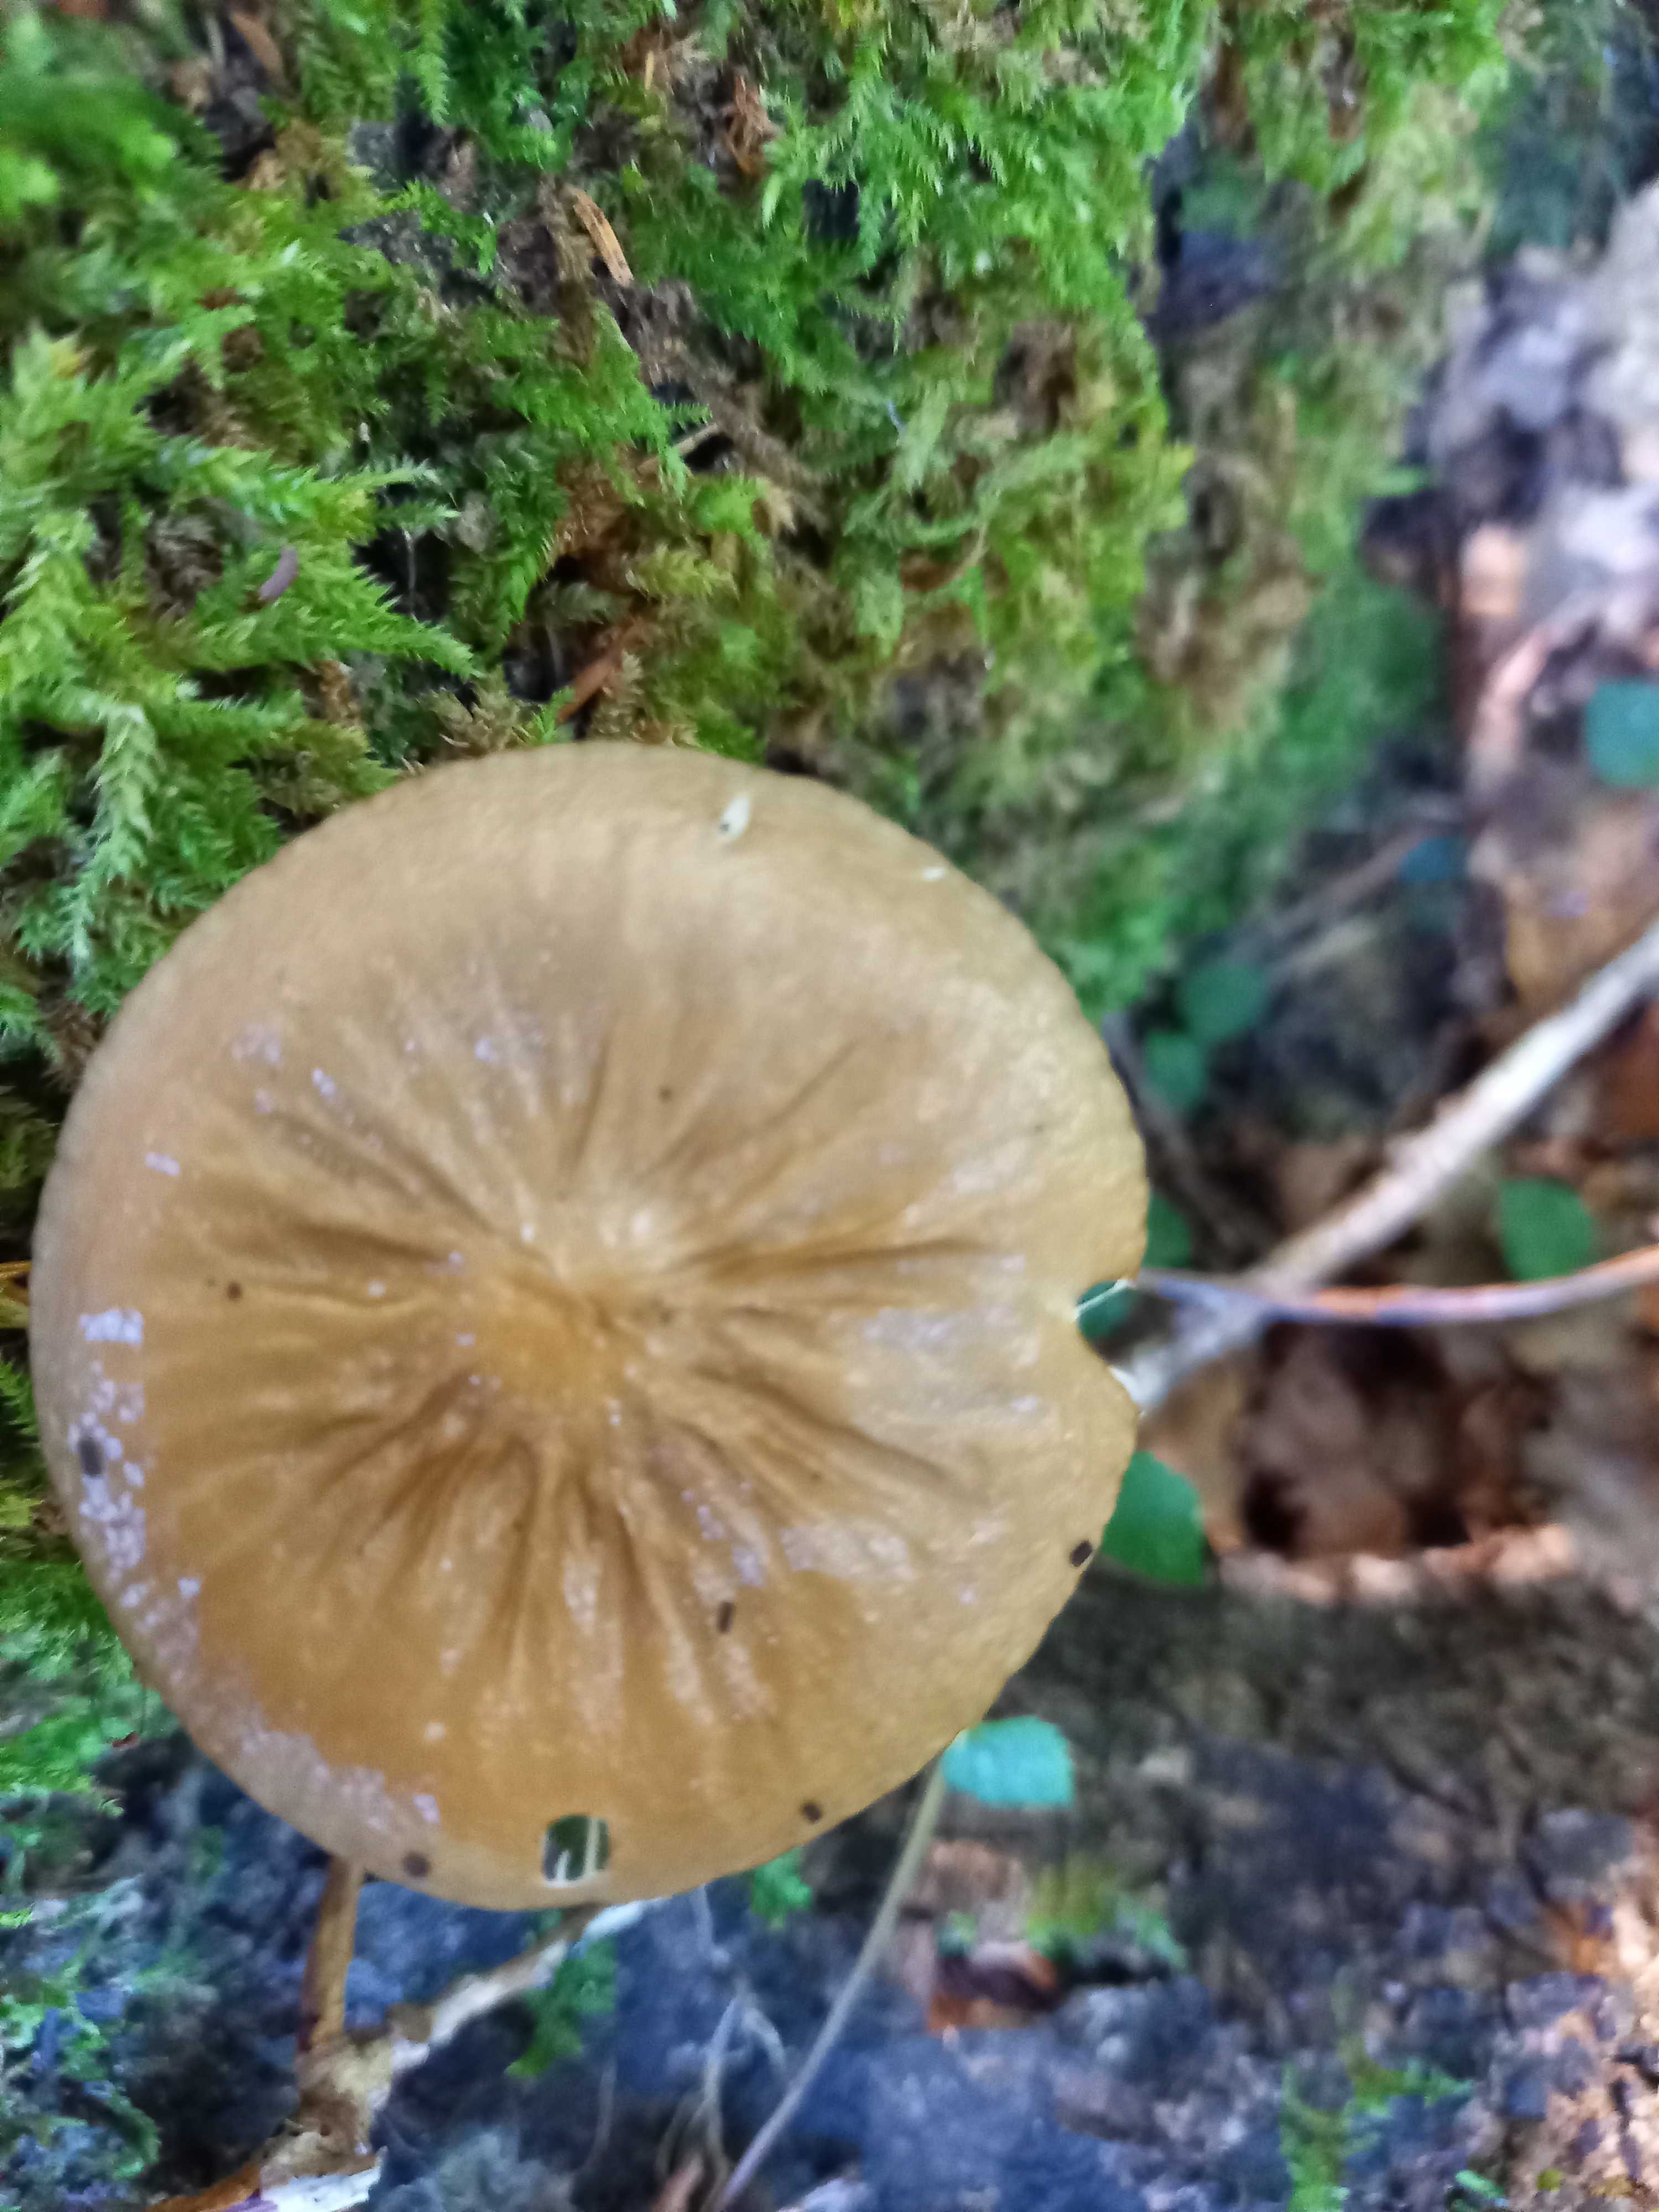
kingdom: Fungi
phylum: Basidiomycota
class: Agaricomycetes
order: Agaricales
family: Physalacriaceae
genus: Hymenopellis
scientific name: Hymenopellis radicata
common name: almindelig pælerodshat
